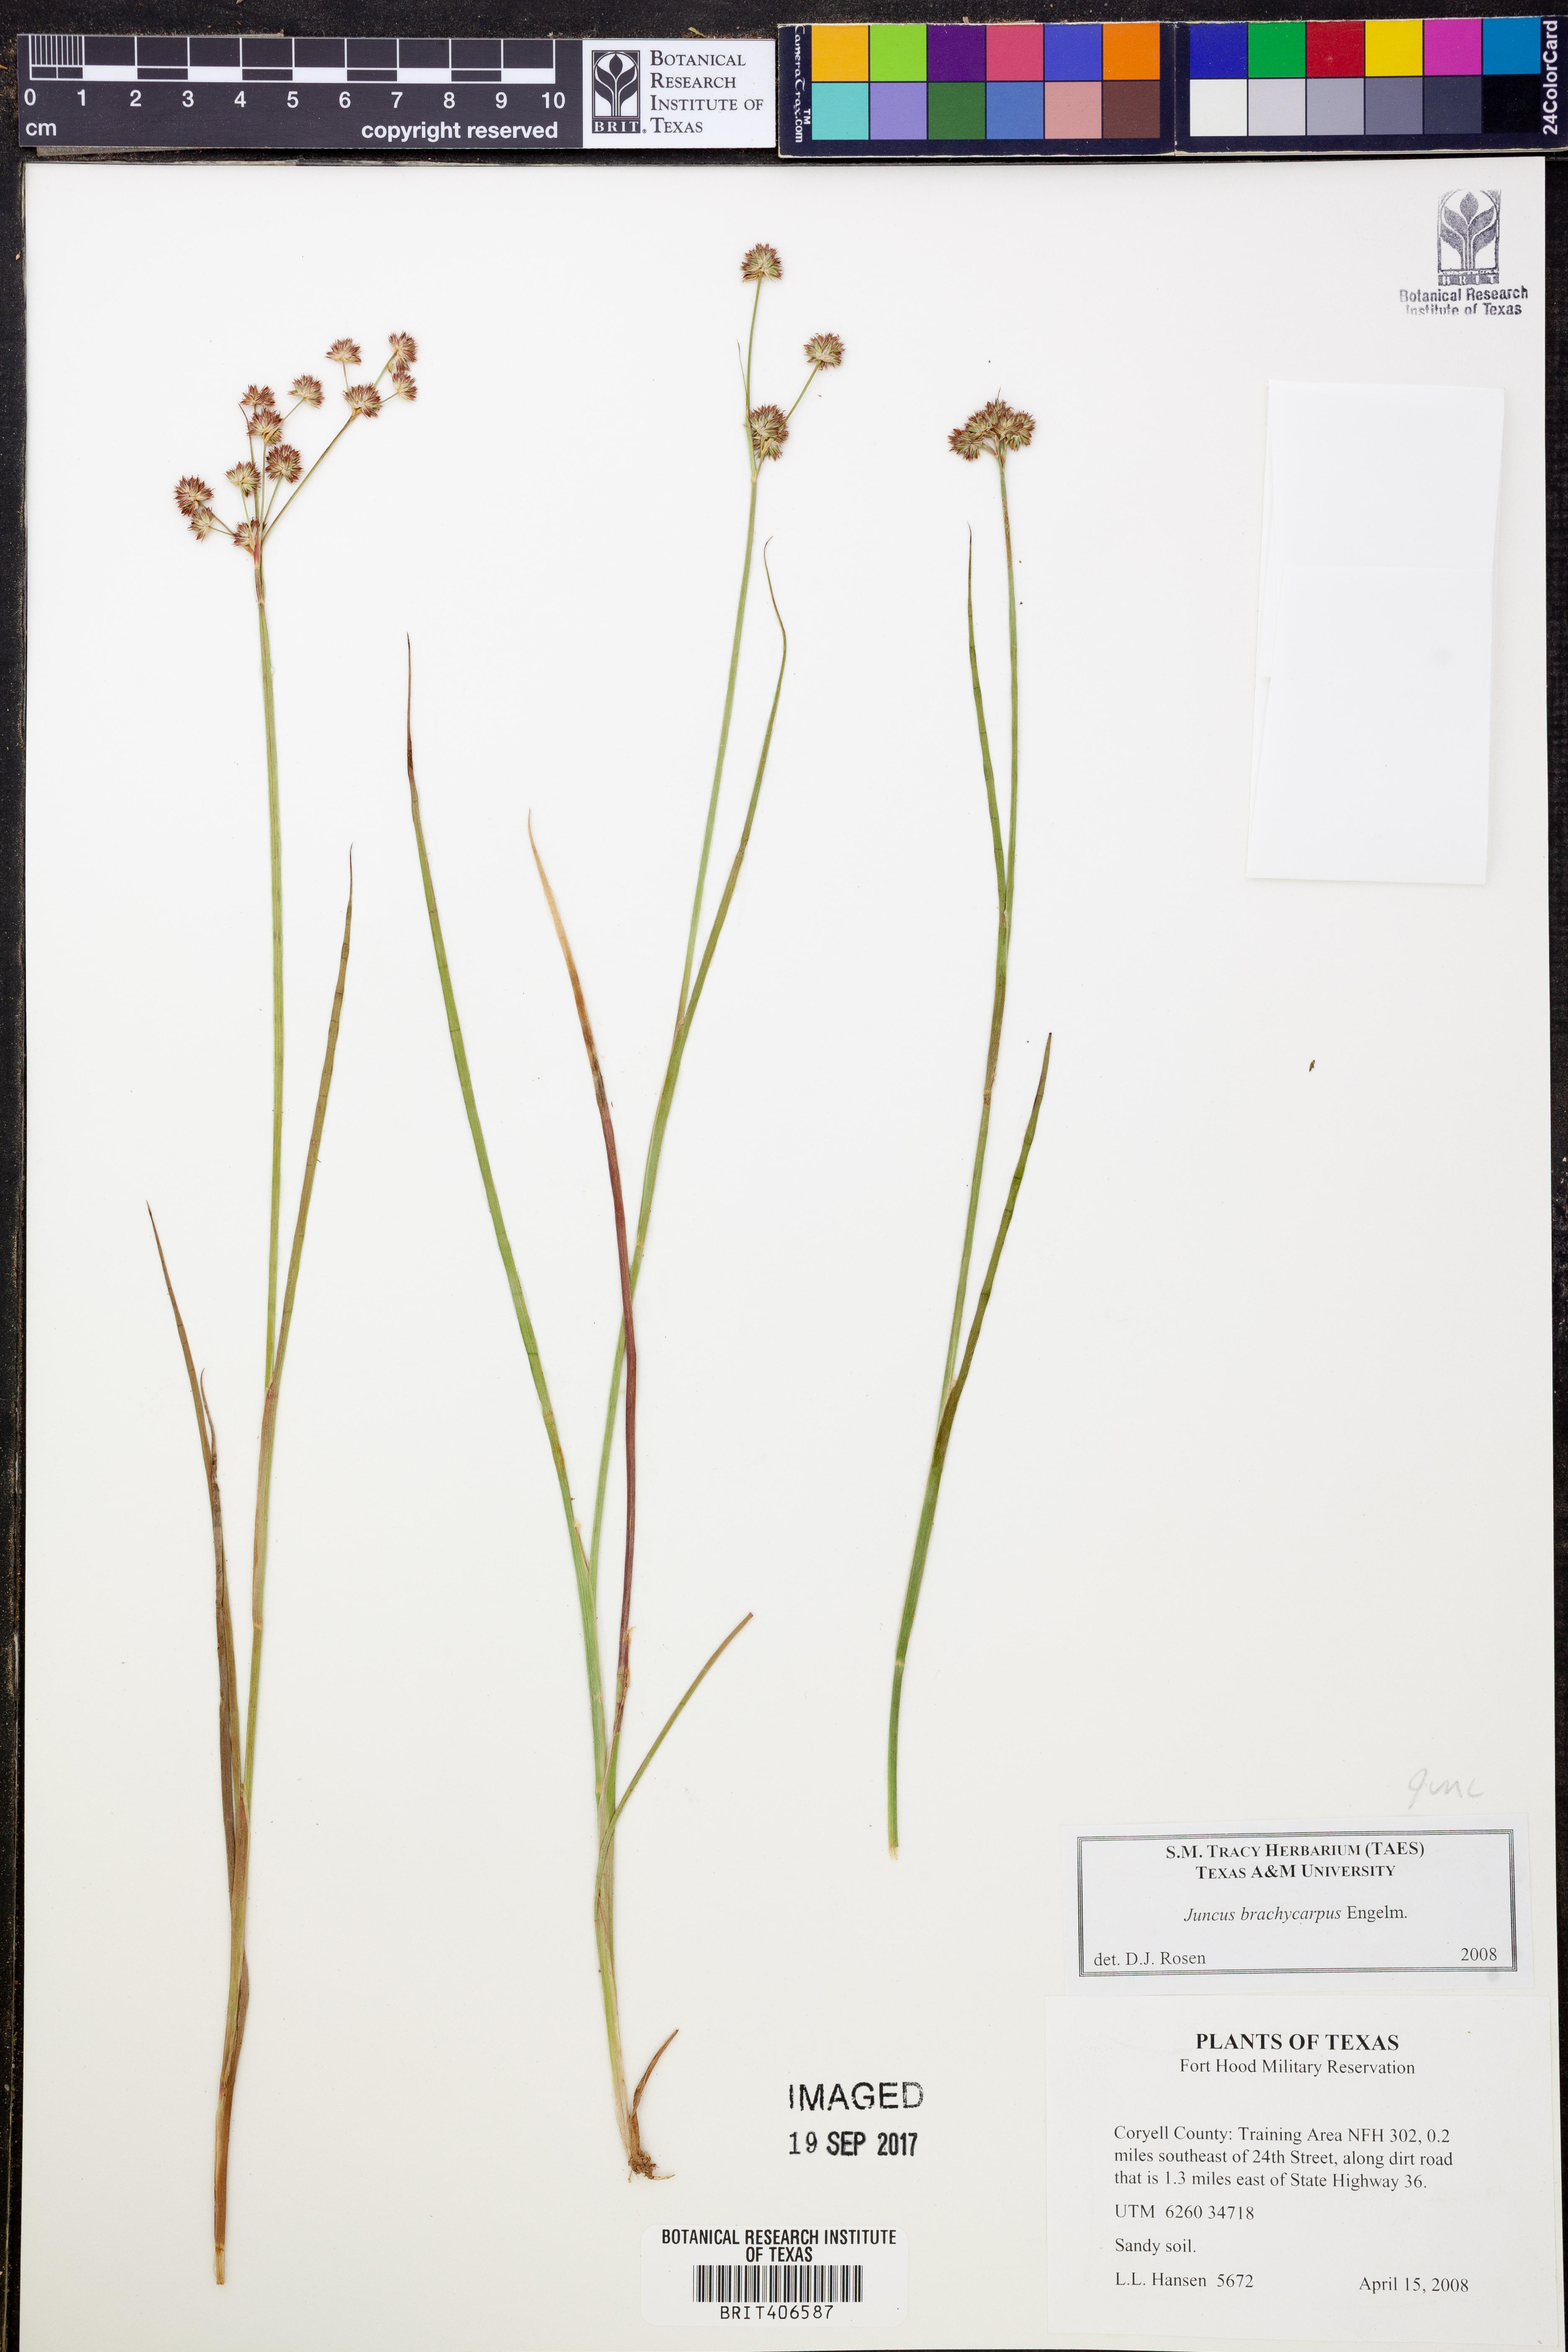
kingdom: Plantae
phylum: Tracheophyta
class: Liliopsida
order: Poales
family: Juncaceae
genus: Juncus
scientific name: Juncus brachycarpus
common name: Shore rush
